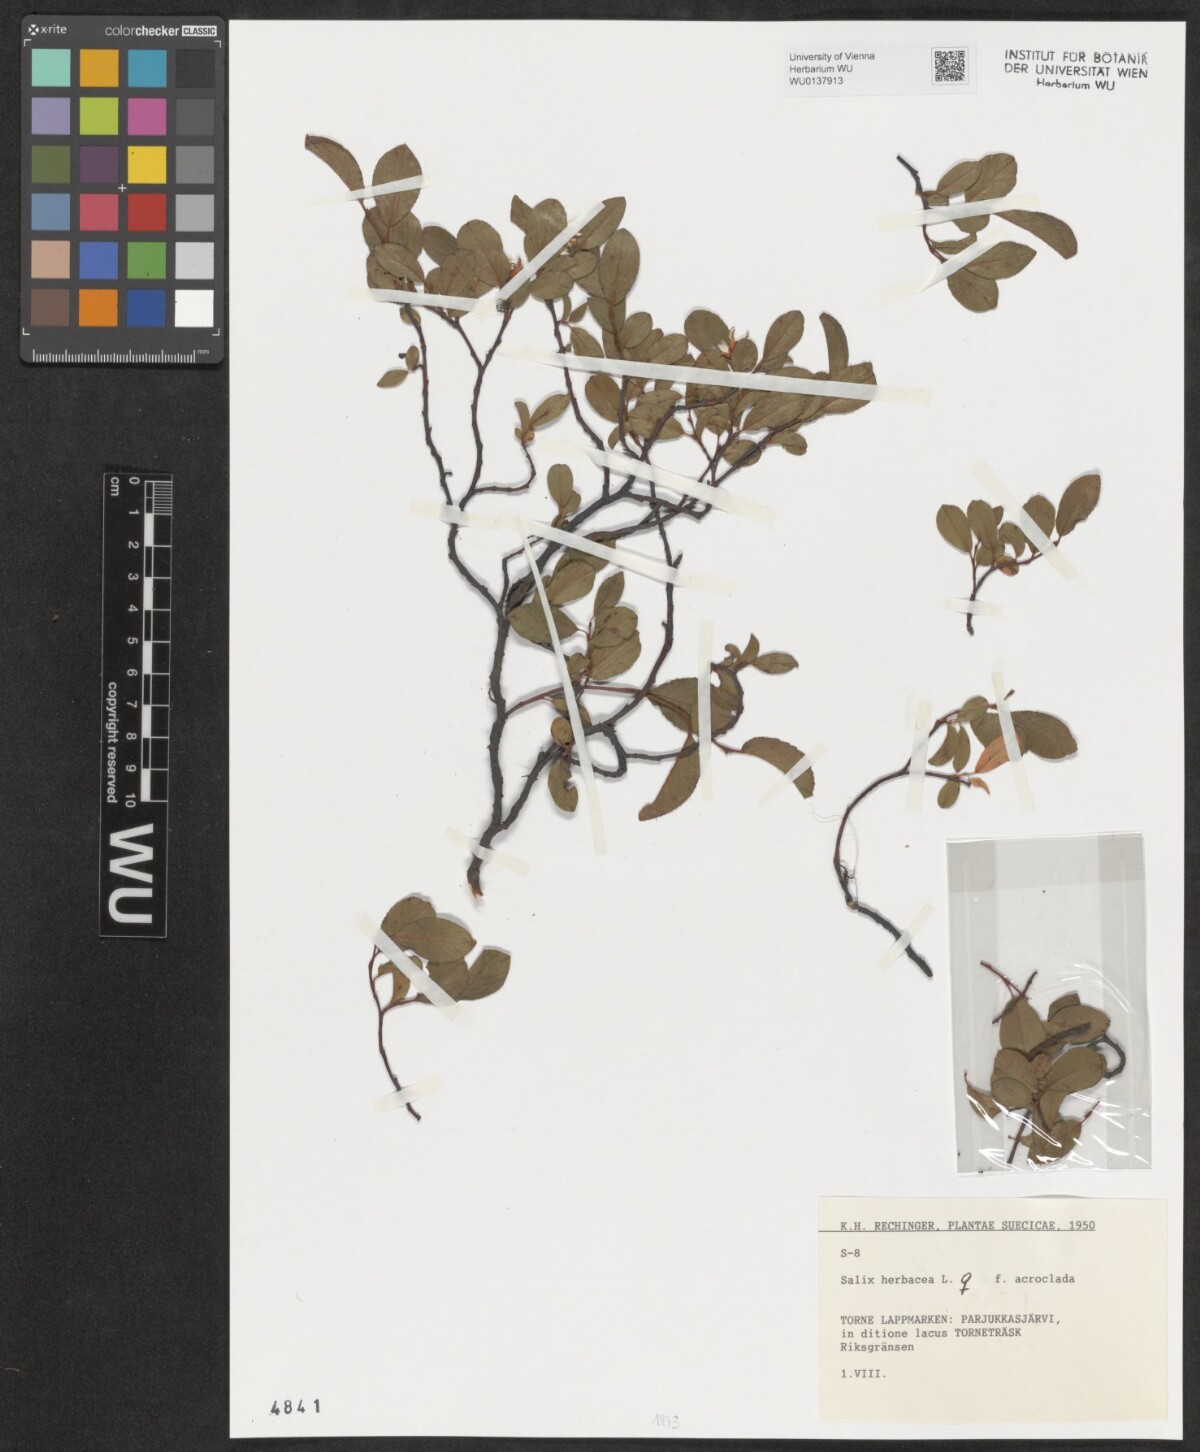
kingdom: Plantae
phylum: Tracheophyta
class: Magnoliopsida
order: Malpighiales
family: Salicaceae
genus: Salix
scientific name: Salix herbacea
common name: Dwarf willow
